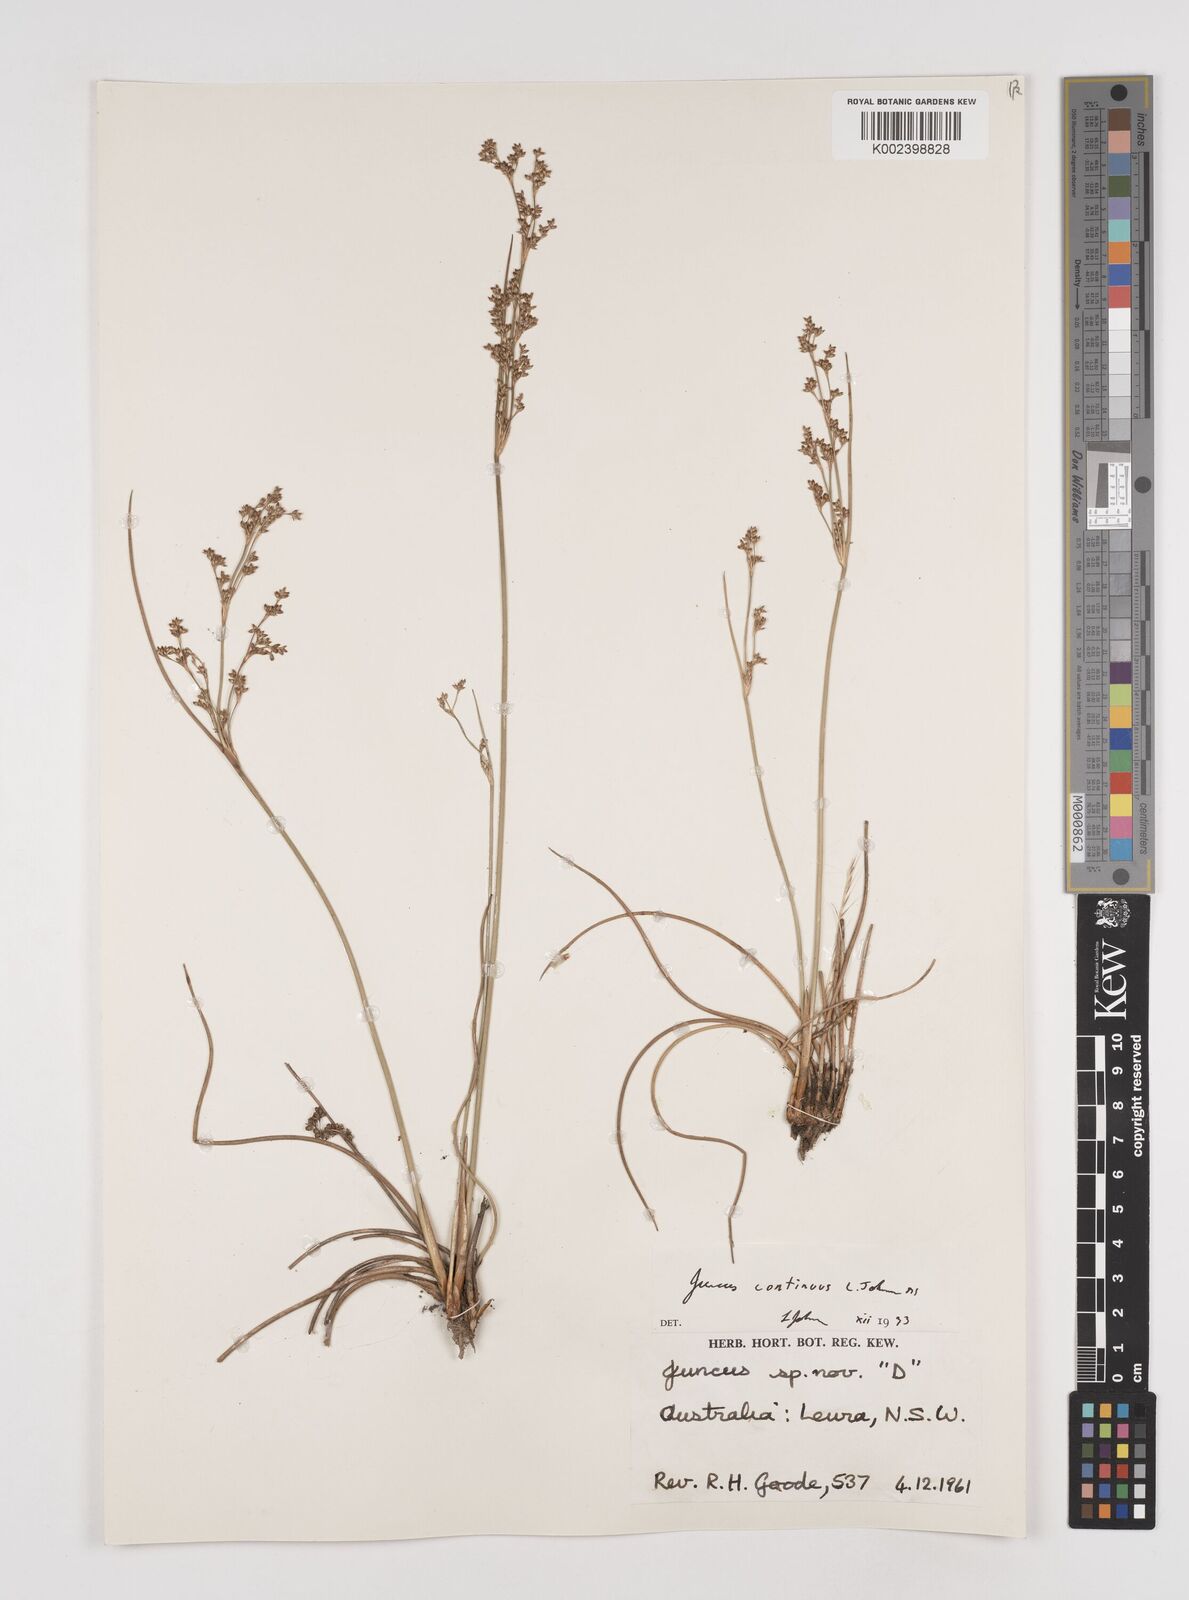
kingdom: Plantae
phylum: Tracheophyta
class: Liliopsida
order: Poales
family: Juncaceae
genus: Juncus
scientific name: Juncus continuus
